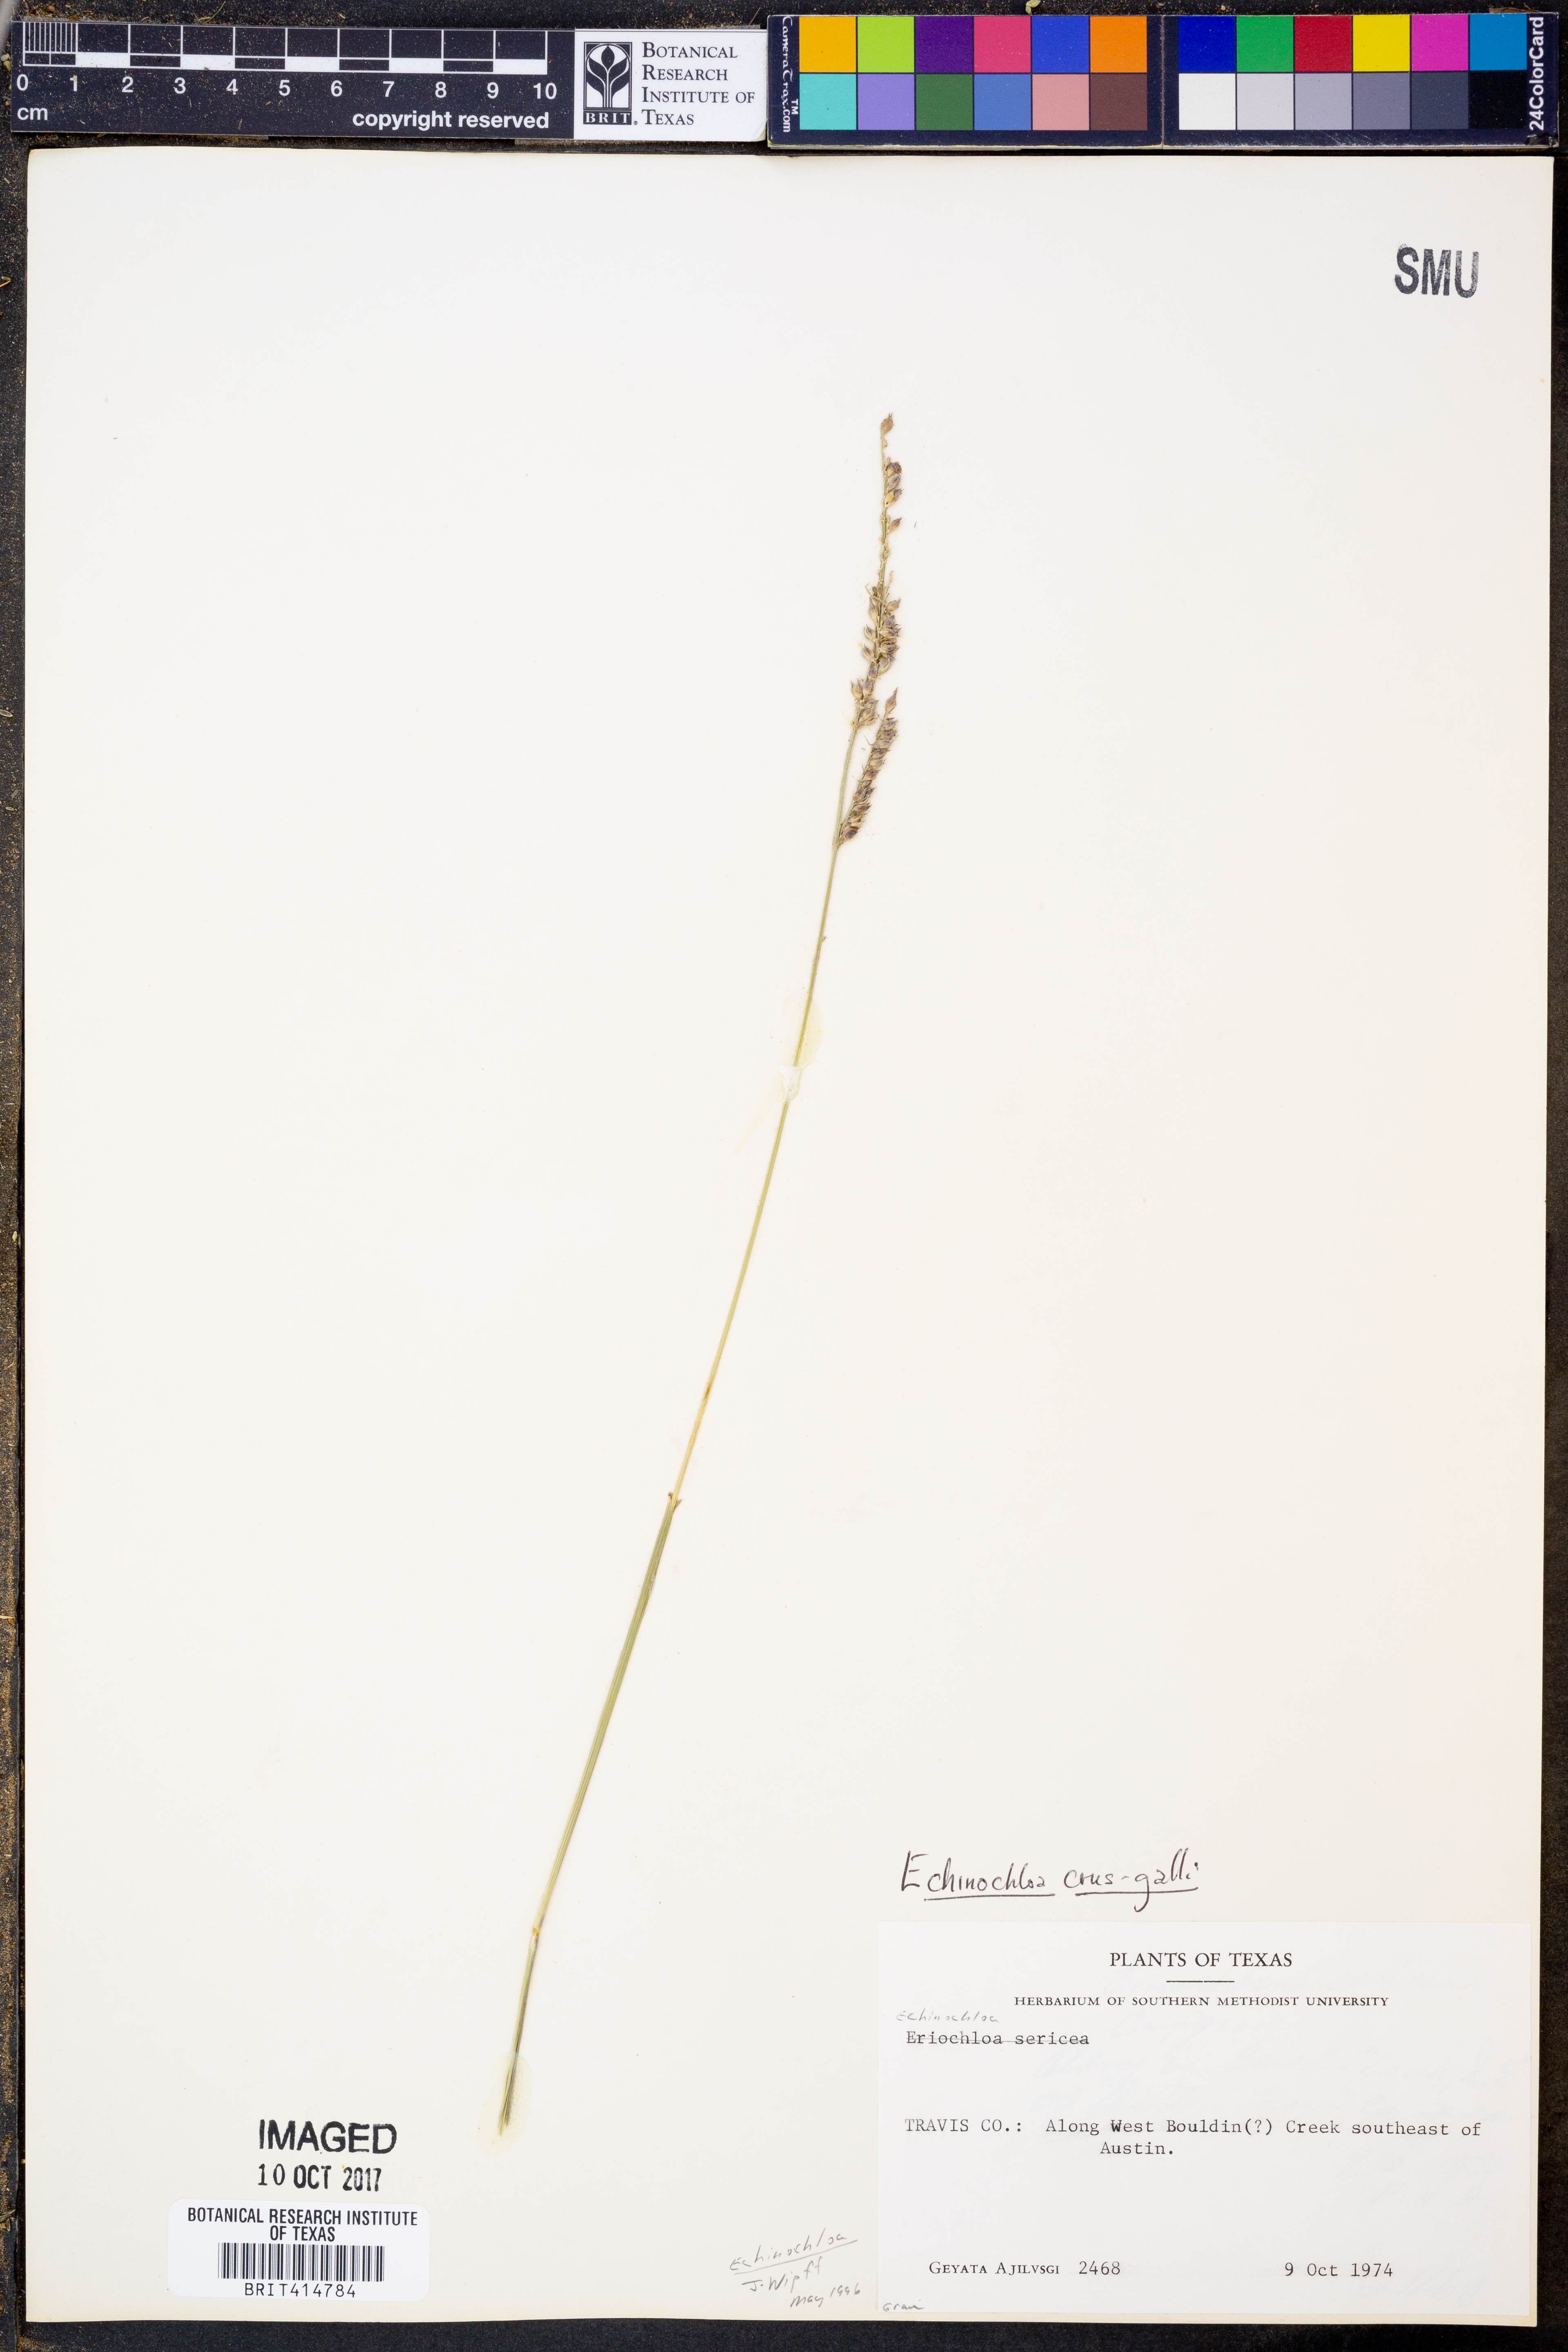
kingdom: Plantae
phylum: Tracheophyta
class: Liliopsida
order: Poales
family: Poaceae
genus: Echinochloa
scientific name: Echinochloa crus-galli
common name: Cockspur
